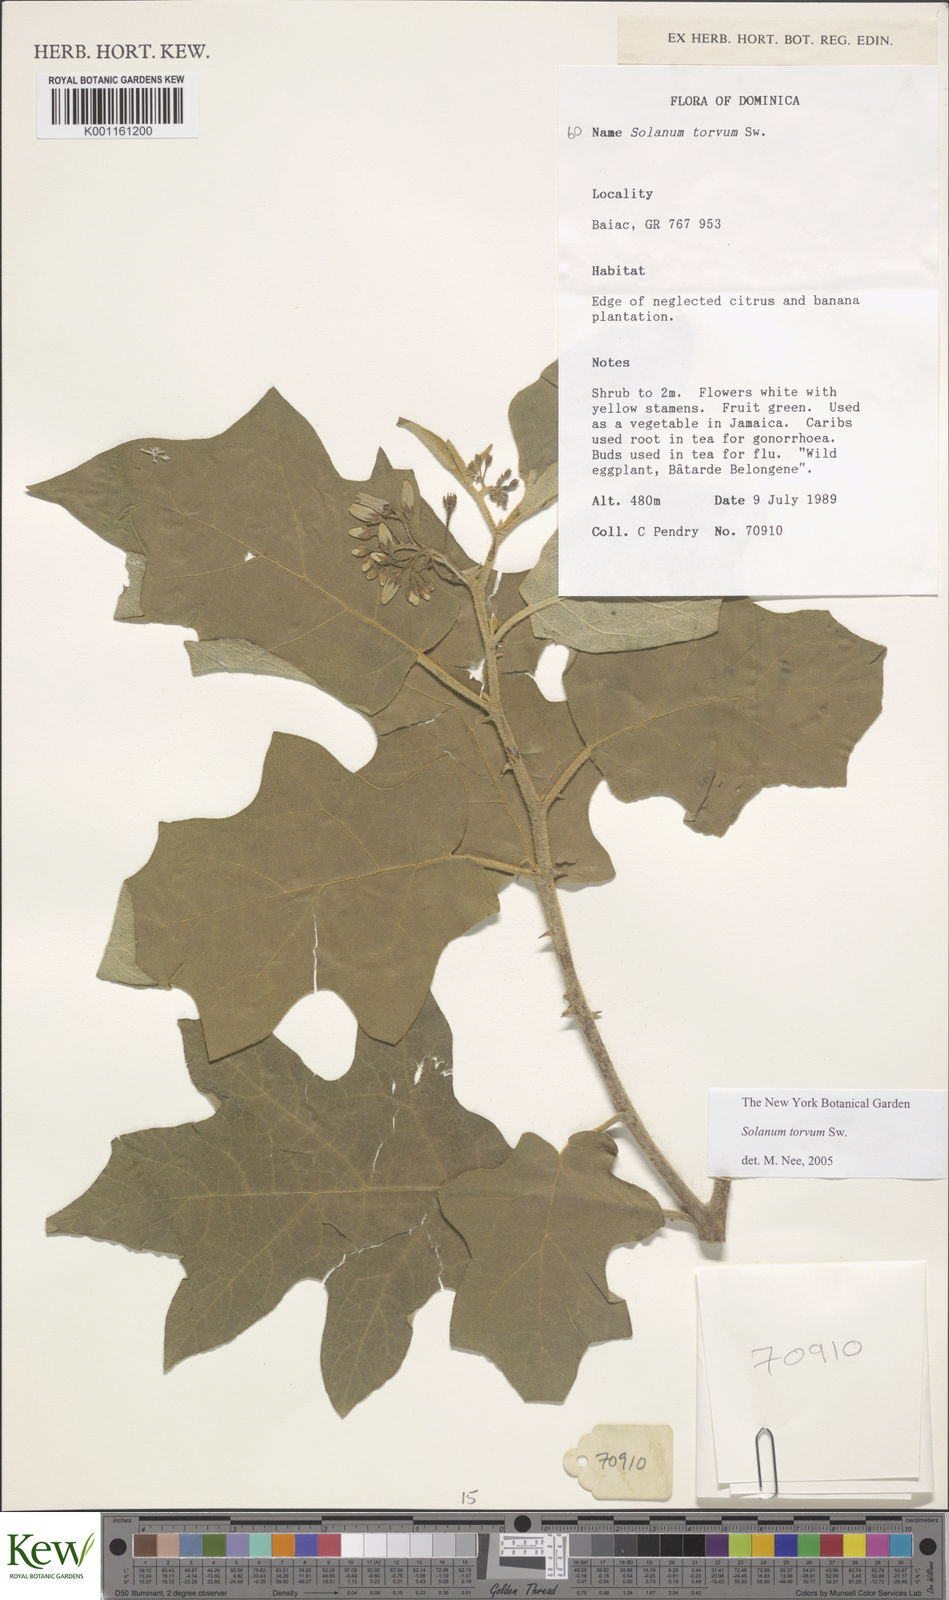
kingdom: Plantae
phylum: Tracheophyta
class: Magnoliopsida
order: Solanales
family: Solanaceae
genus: Solanum
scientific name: Solanum torvum
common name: Turkey berry
